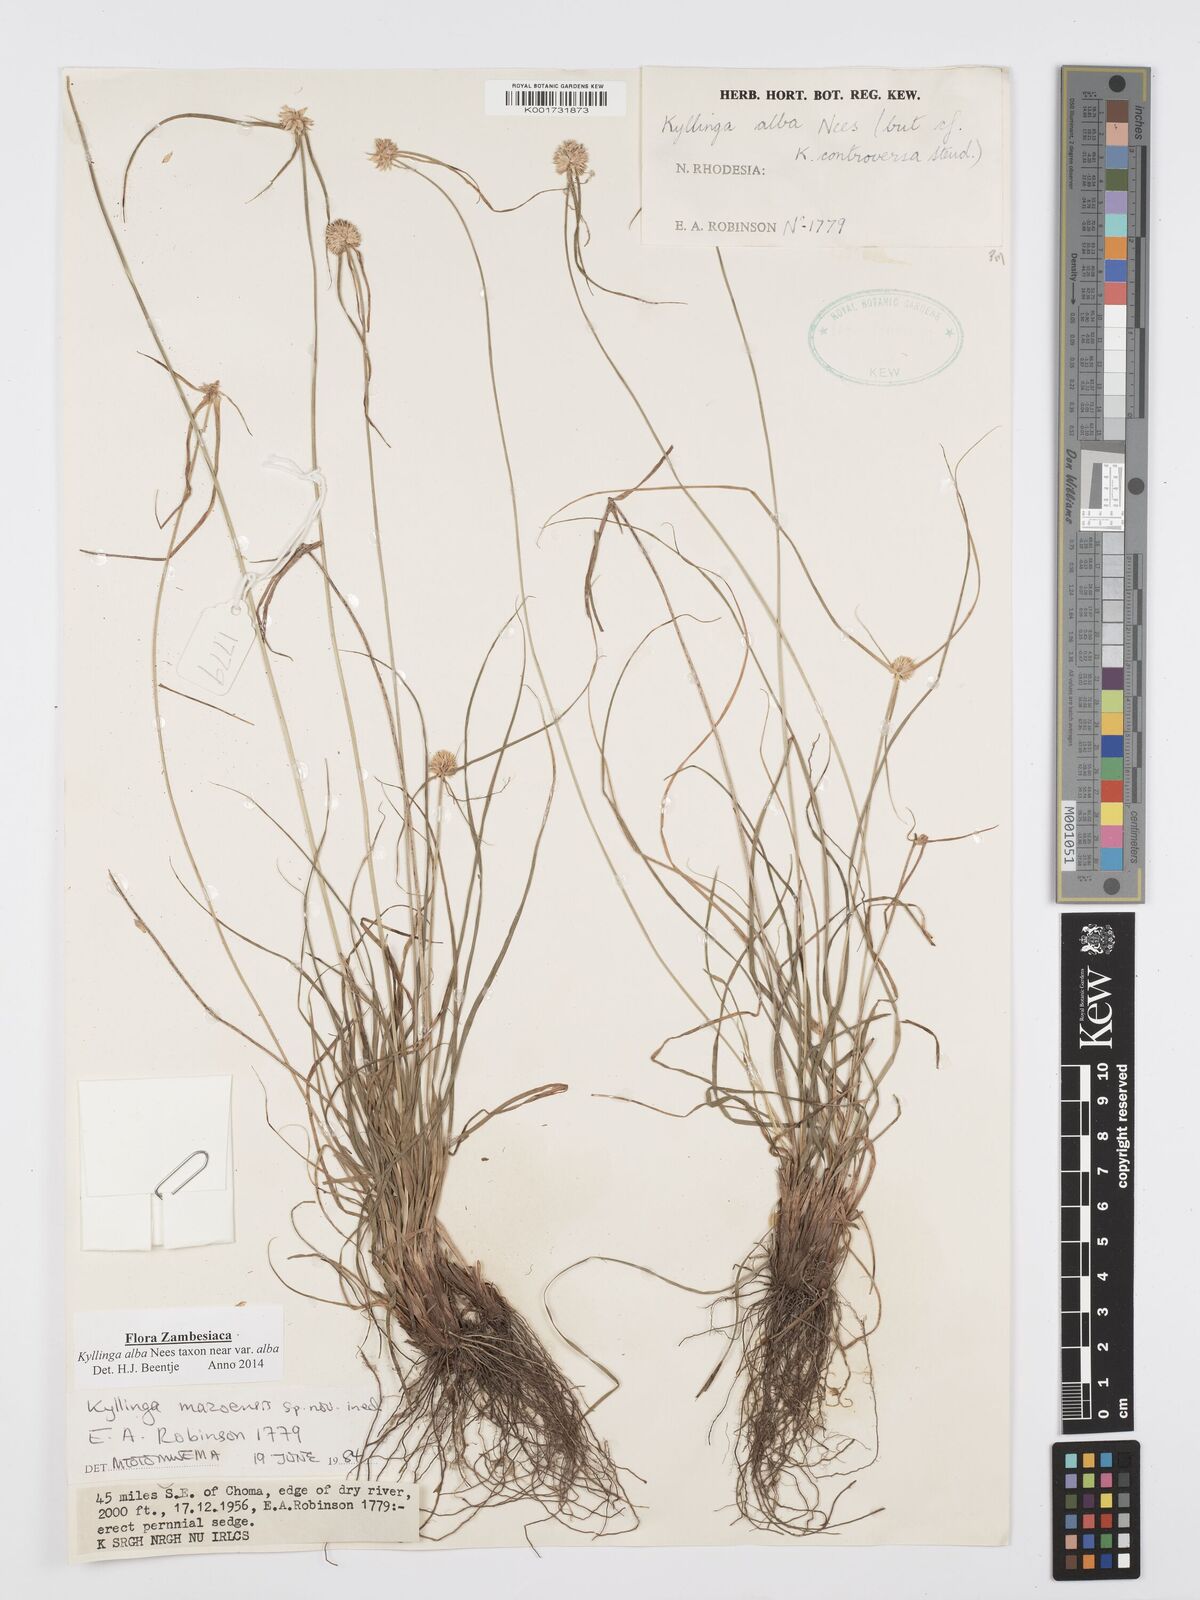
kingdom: Plantae
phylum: Tracheophyta
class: Liliopsida
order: Poales
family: Cyperaceae
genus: Cyperus
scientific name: Cyperus
